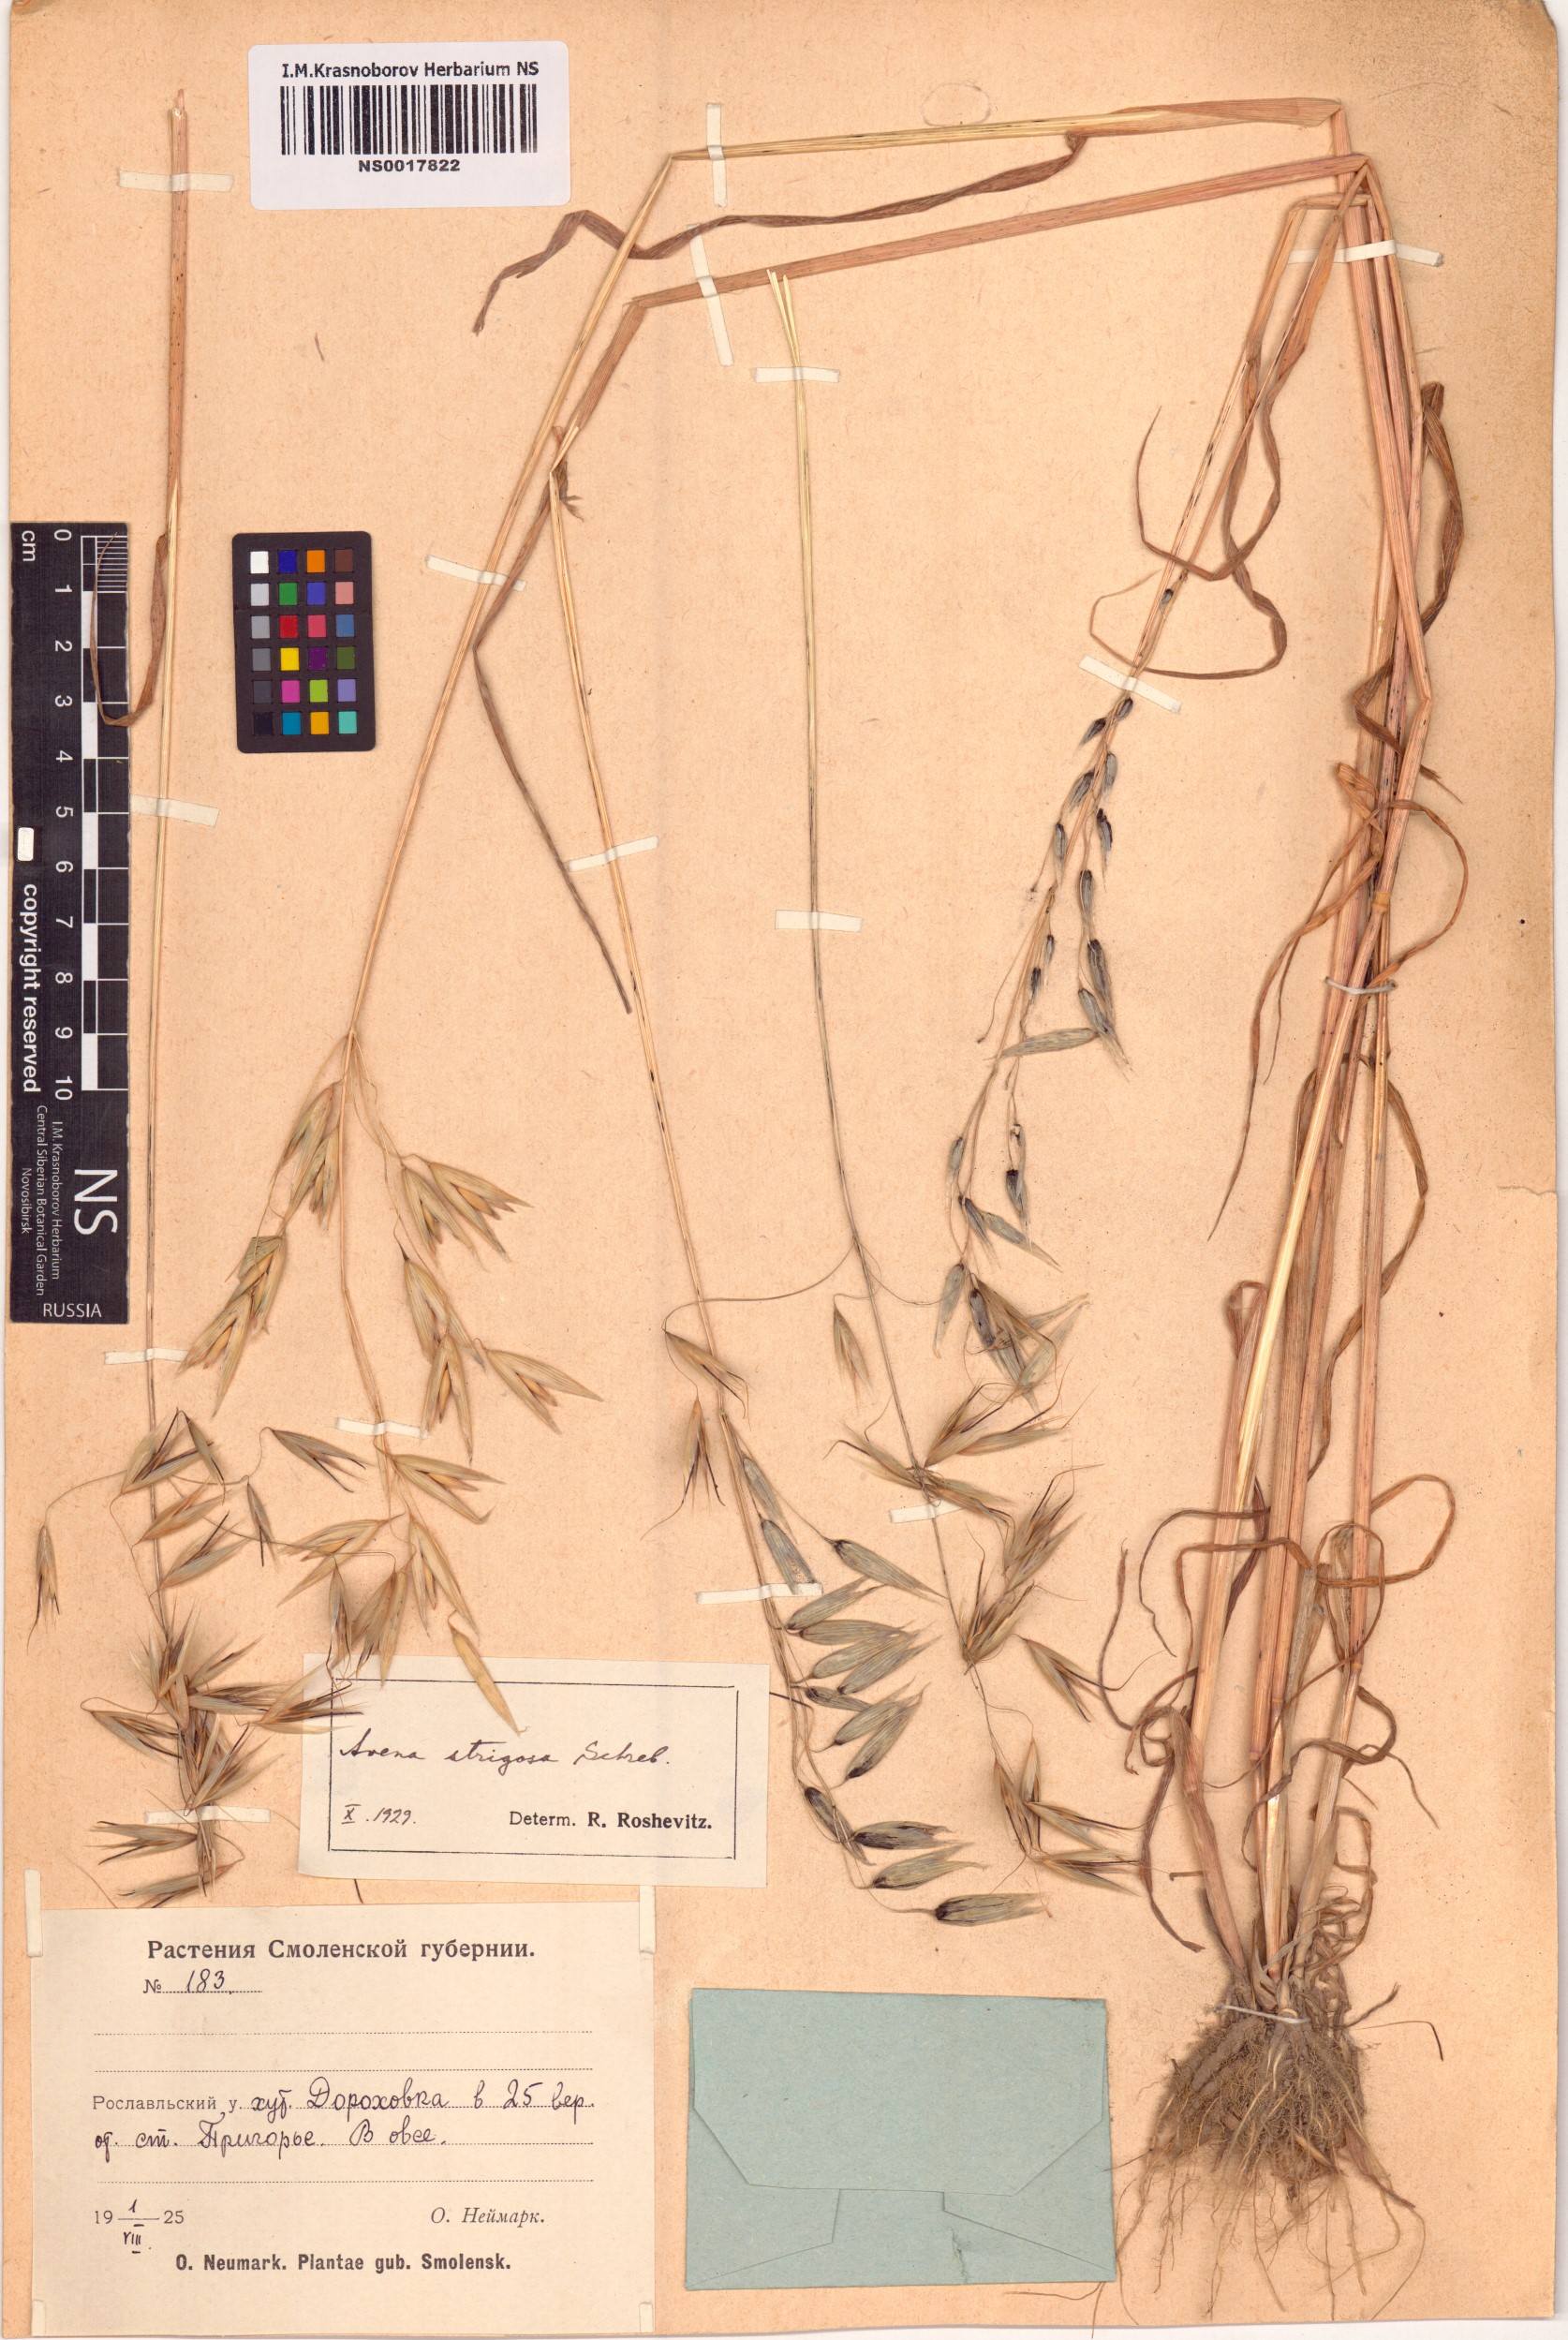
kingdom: Plantae
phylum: Tracheophyta
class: Liliopsida
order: Poales
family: Poaceae
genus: Avena
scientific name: Avena strigosa
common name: Bristle oat
